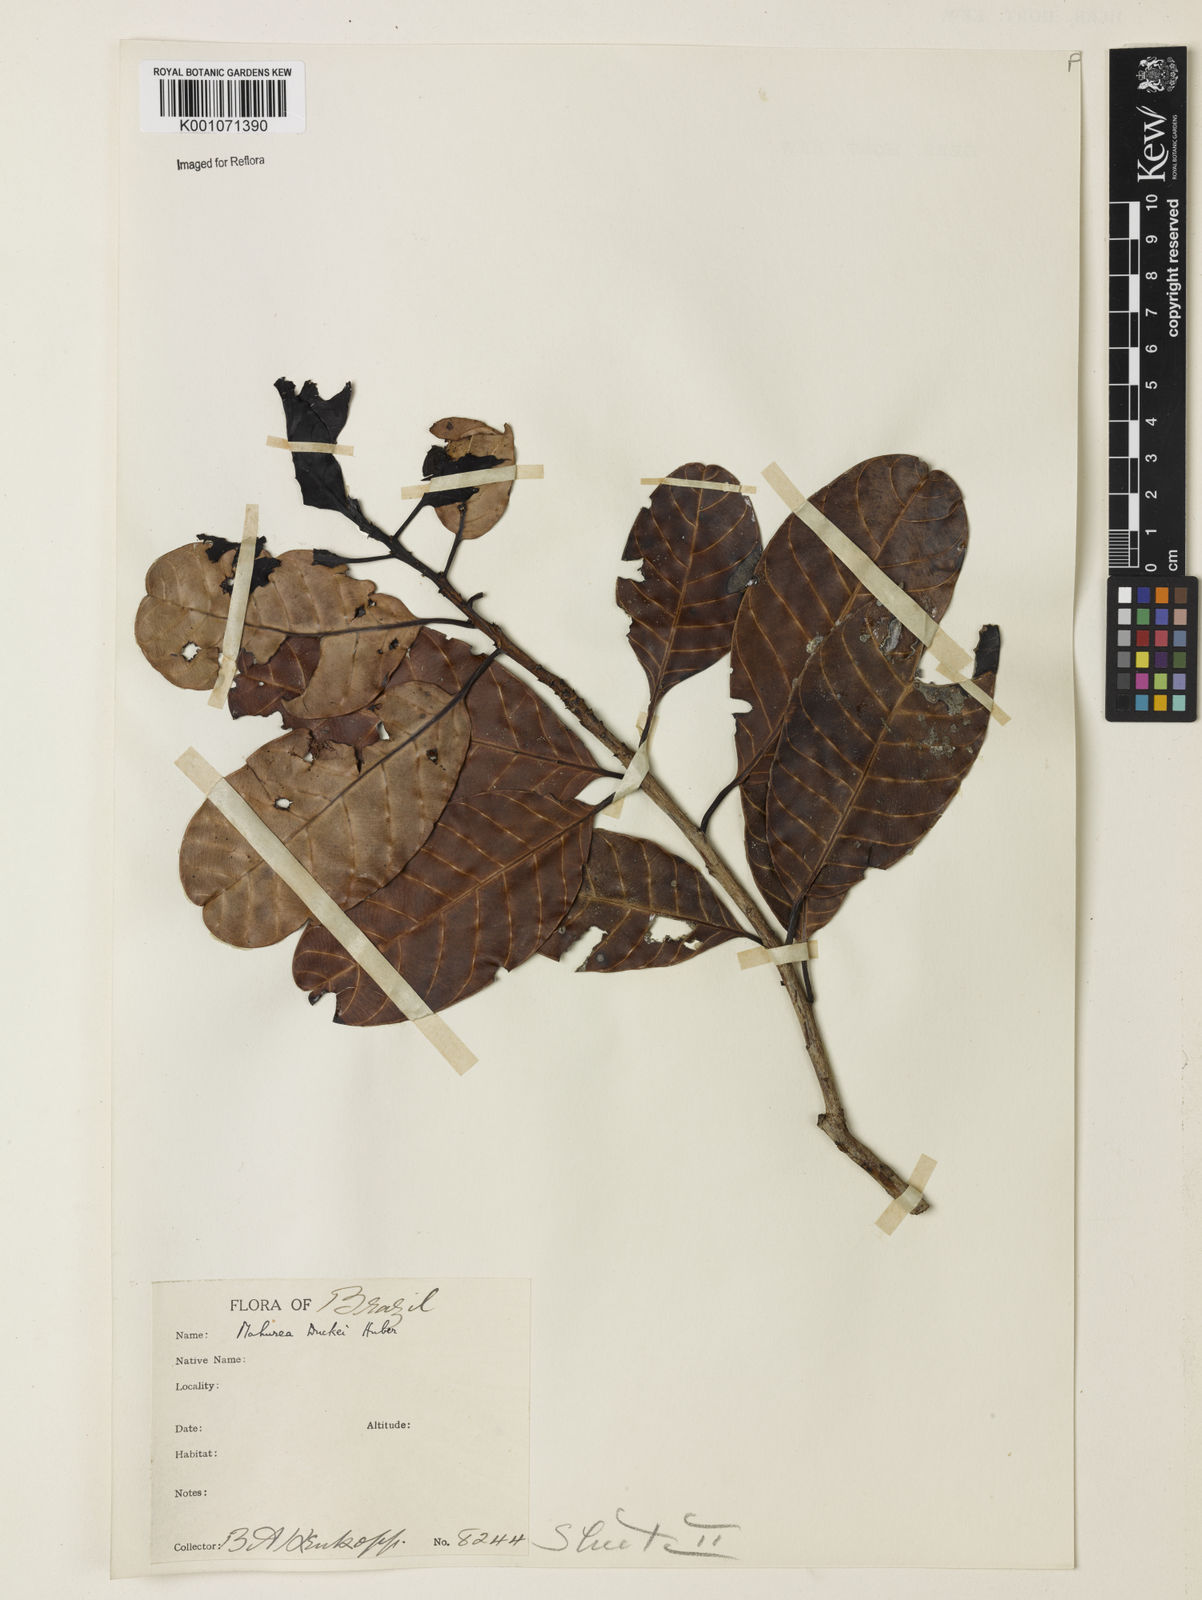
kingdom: Plantae
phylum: Tracheophyta
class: Magnoliopsida
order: Malpighiales
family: Calophyllaceae
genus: Mahurea
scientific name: Mahurea exstipulata
